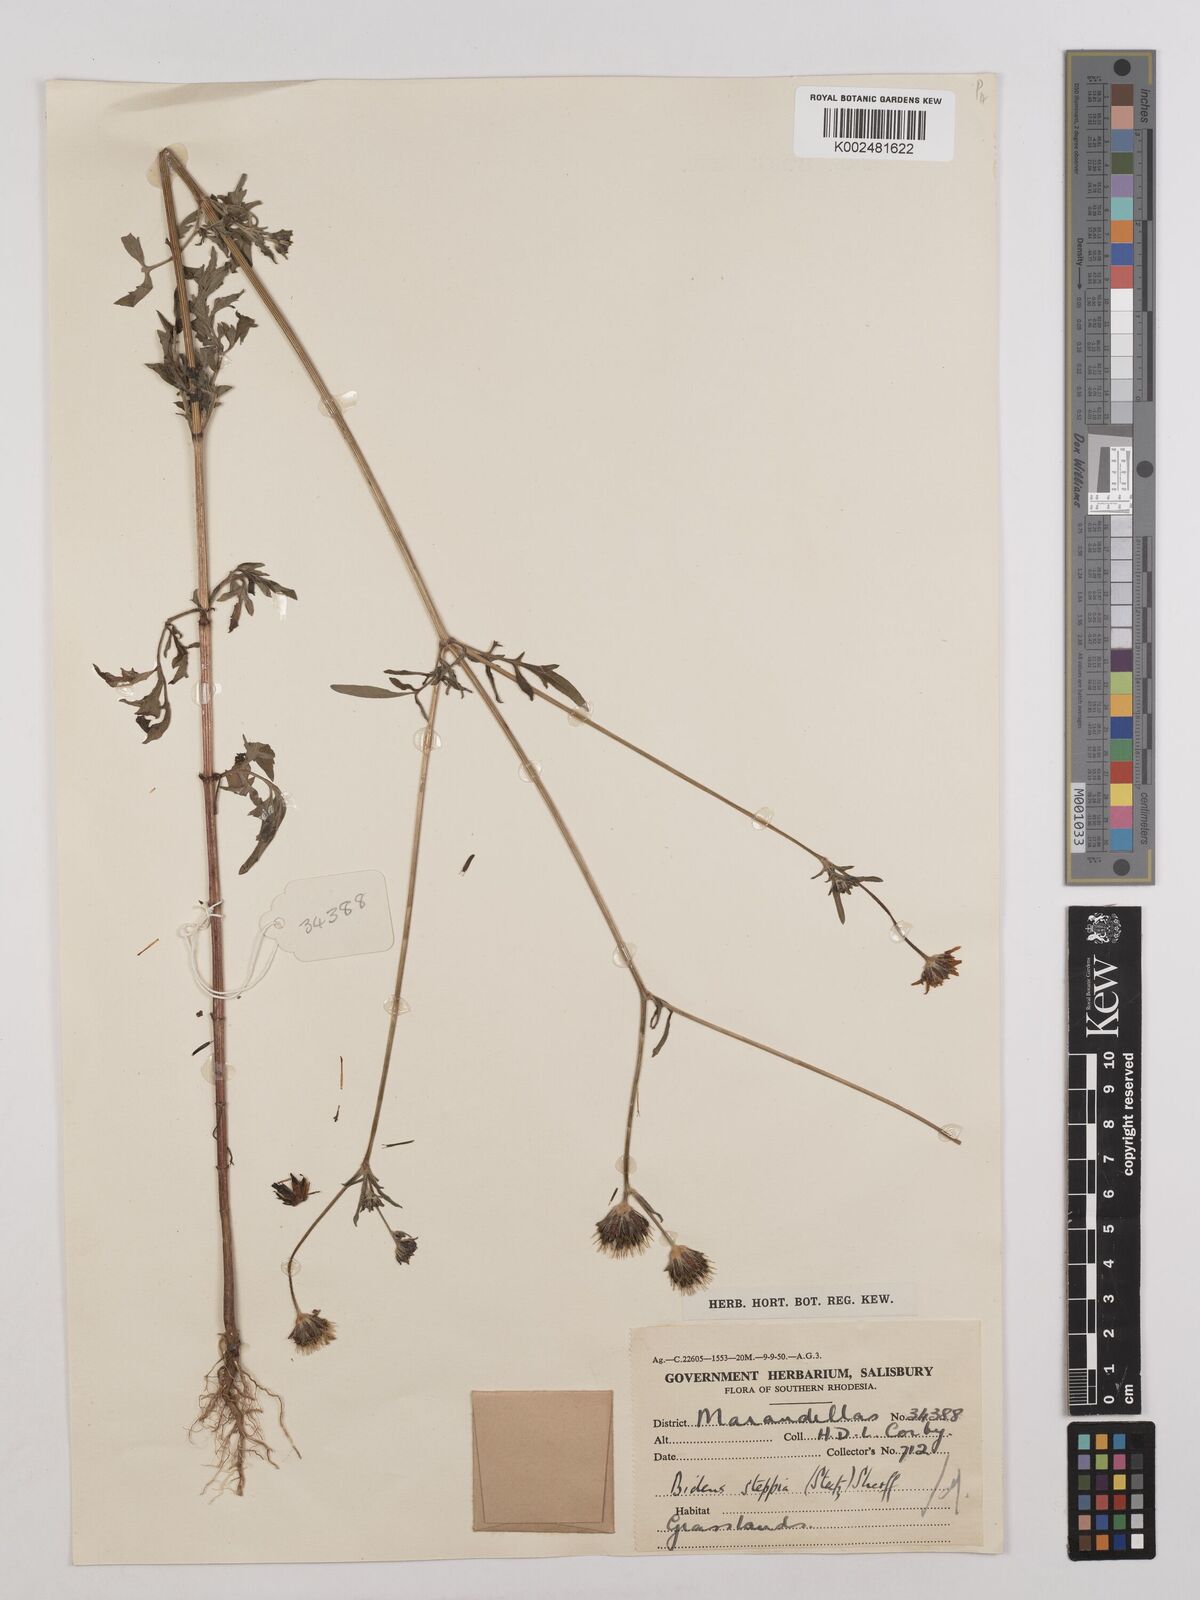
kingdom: Plantae
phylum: Tracheophyta
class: Magnoliopsida
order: Asterales
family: Asteraceae
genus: Bidens
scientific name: Bidens schimperi
